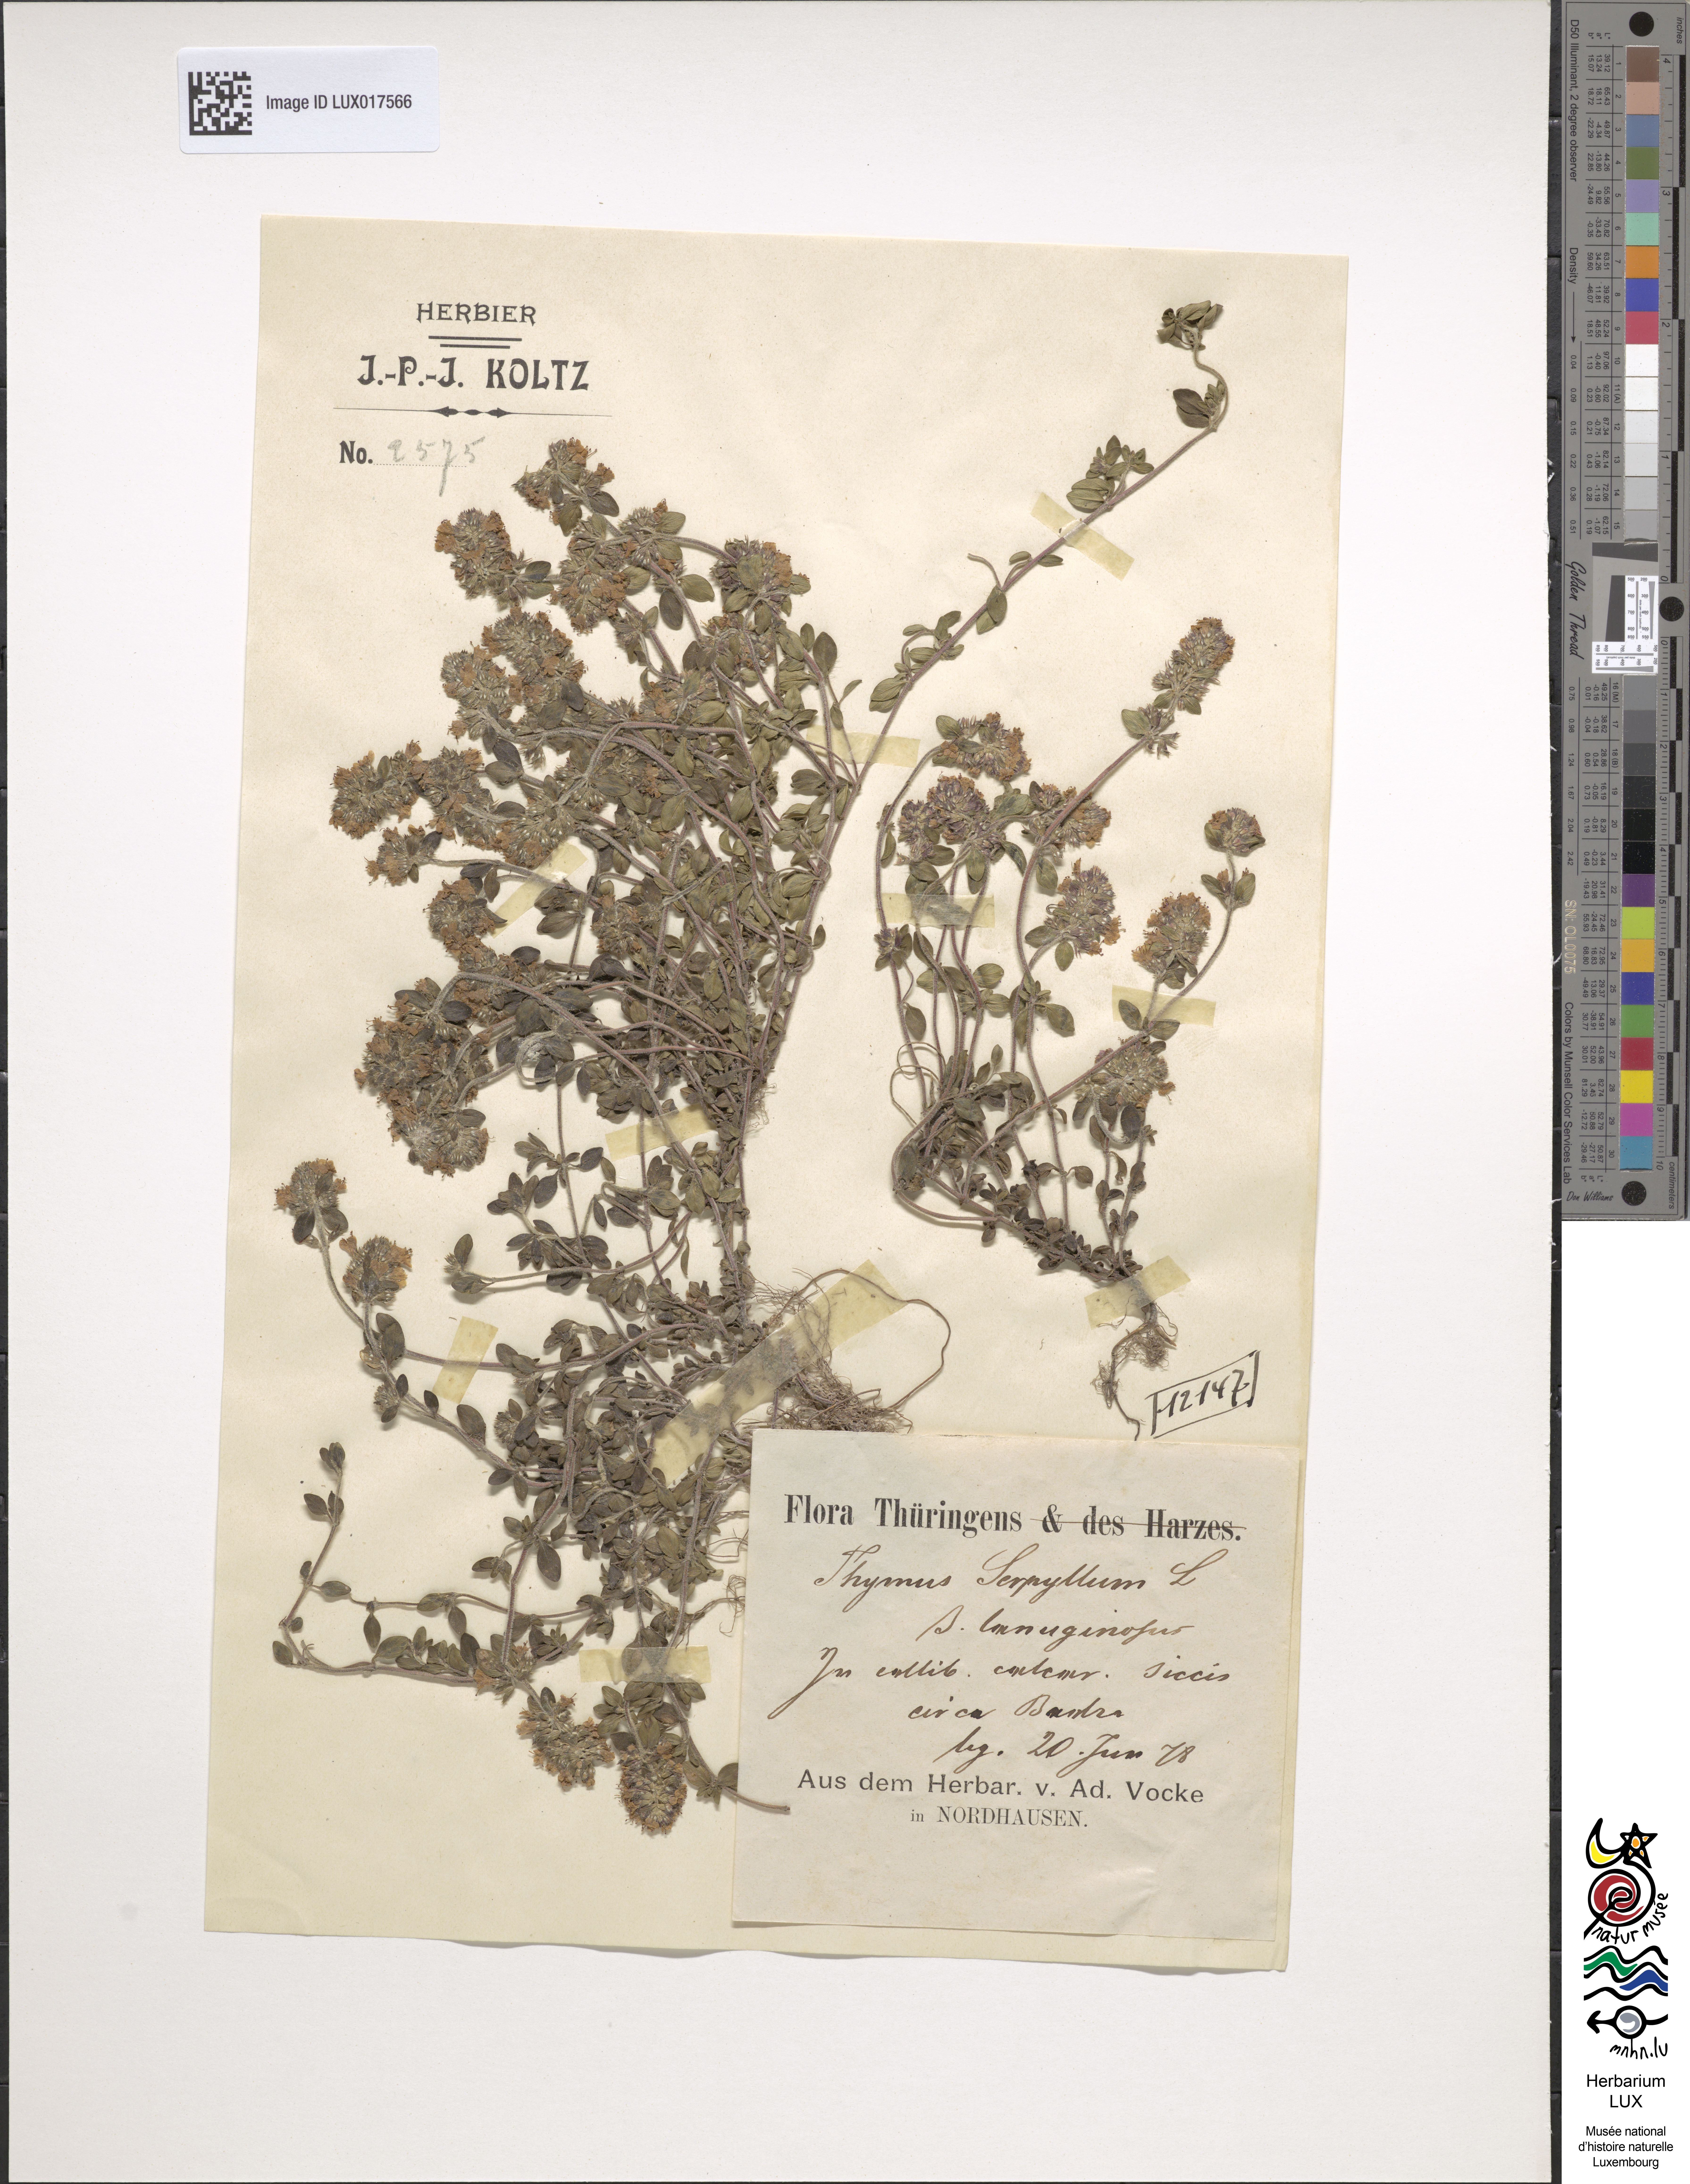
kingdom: Plantae
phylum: Tracheophyta
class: Magnoliopsida
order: Lamiales
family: Lamiaceae
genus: Thymus
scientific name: Thymus oenipontanus
